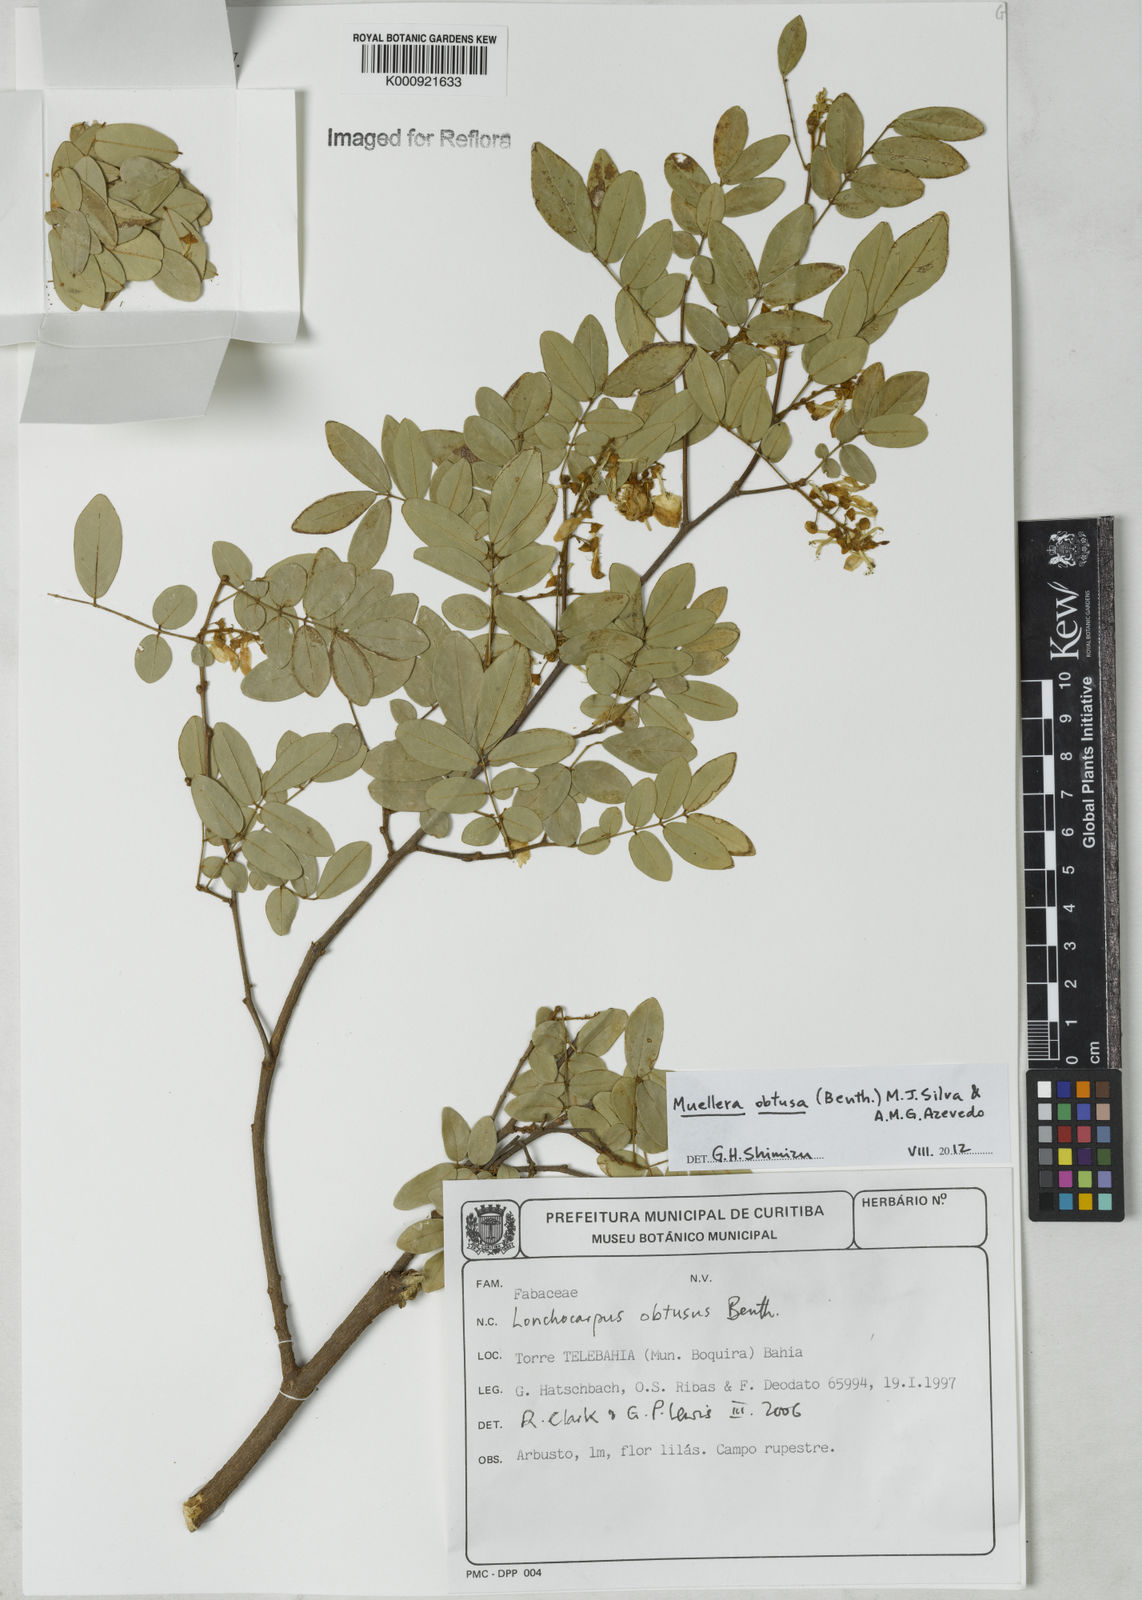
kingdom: Plantae
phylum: Tracheophyta
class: Magnoliopsida
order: Fabales
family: Fabaceae
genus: Muellera
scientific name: Muellera obtusa
